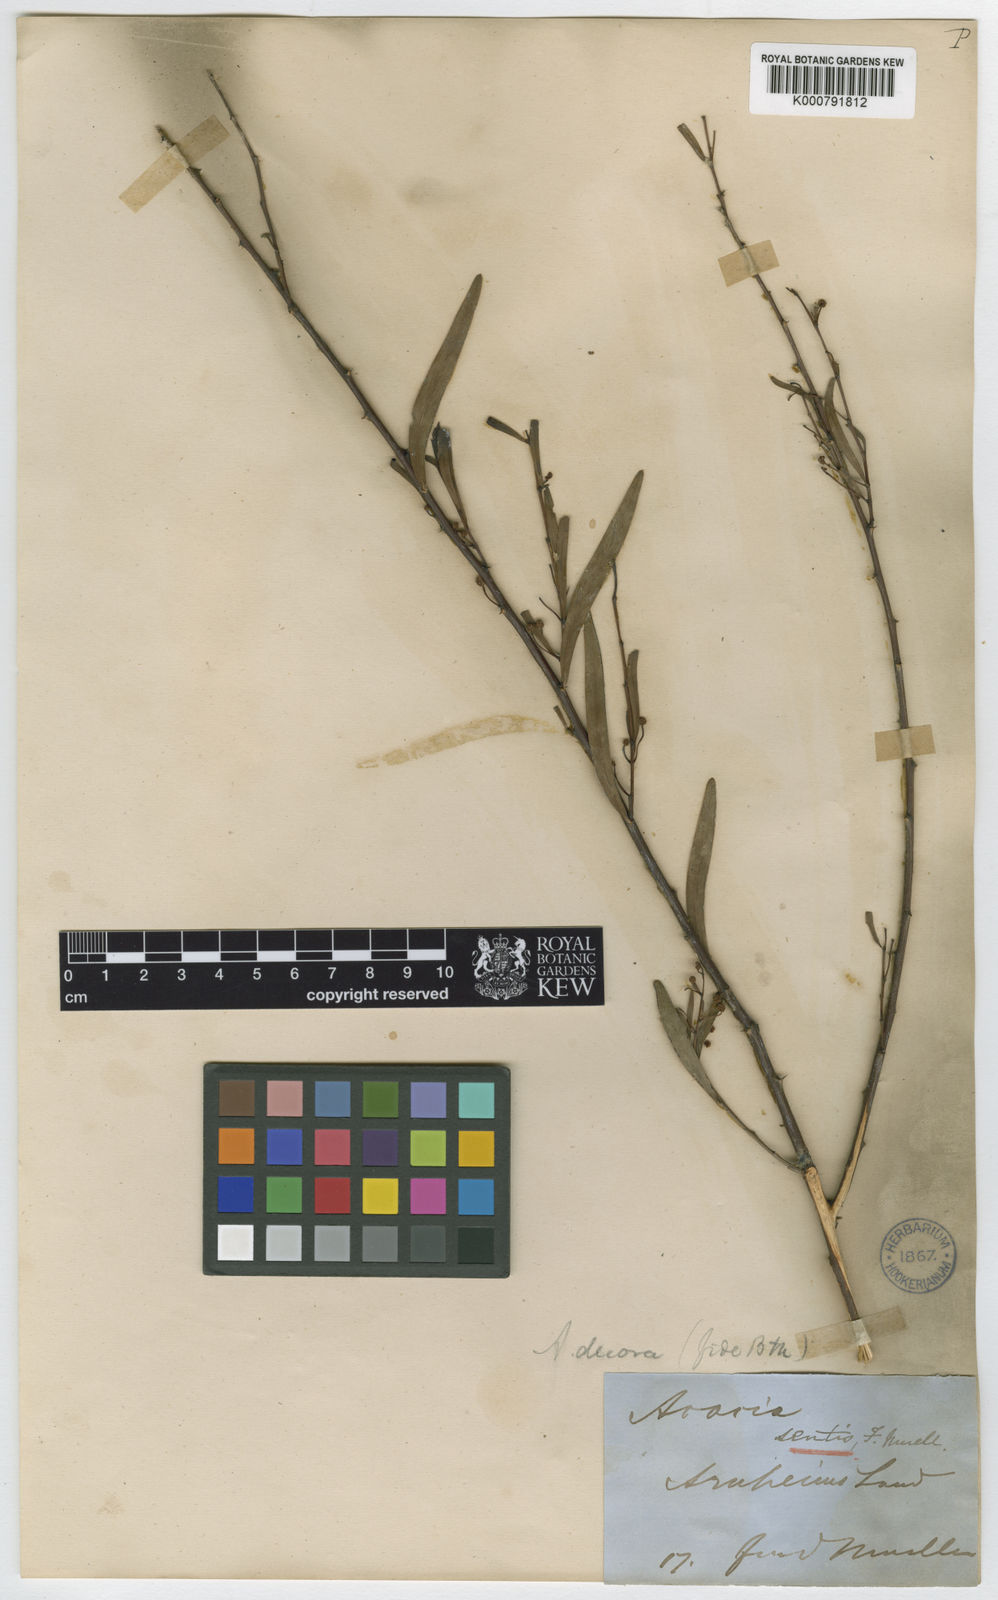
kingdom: Plantae
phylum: Tracheophyta
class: Magnoliopsida
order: Fabales
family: Fabaceae
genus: Acacia
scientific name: Acacia victoriae
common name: Bramble wattle
